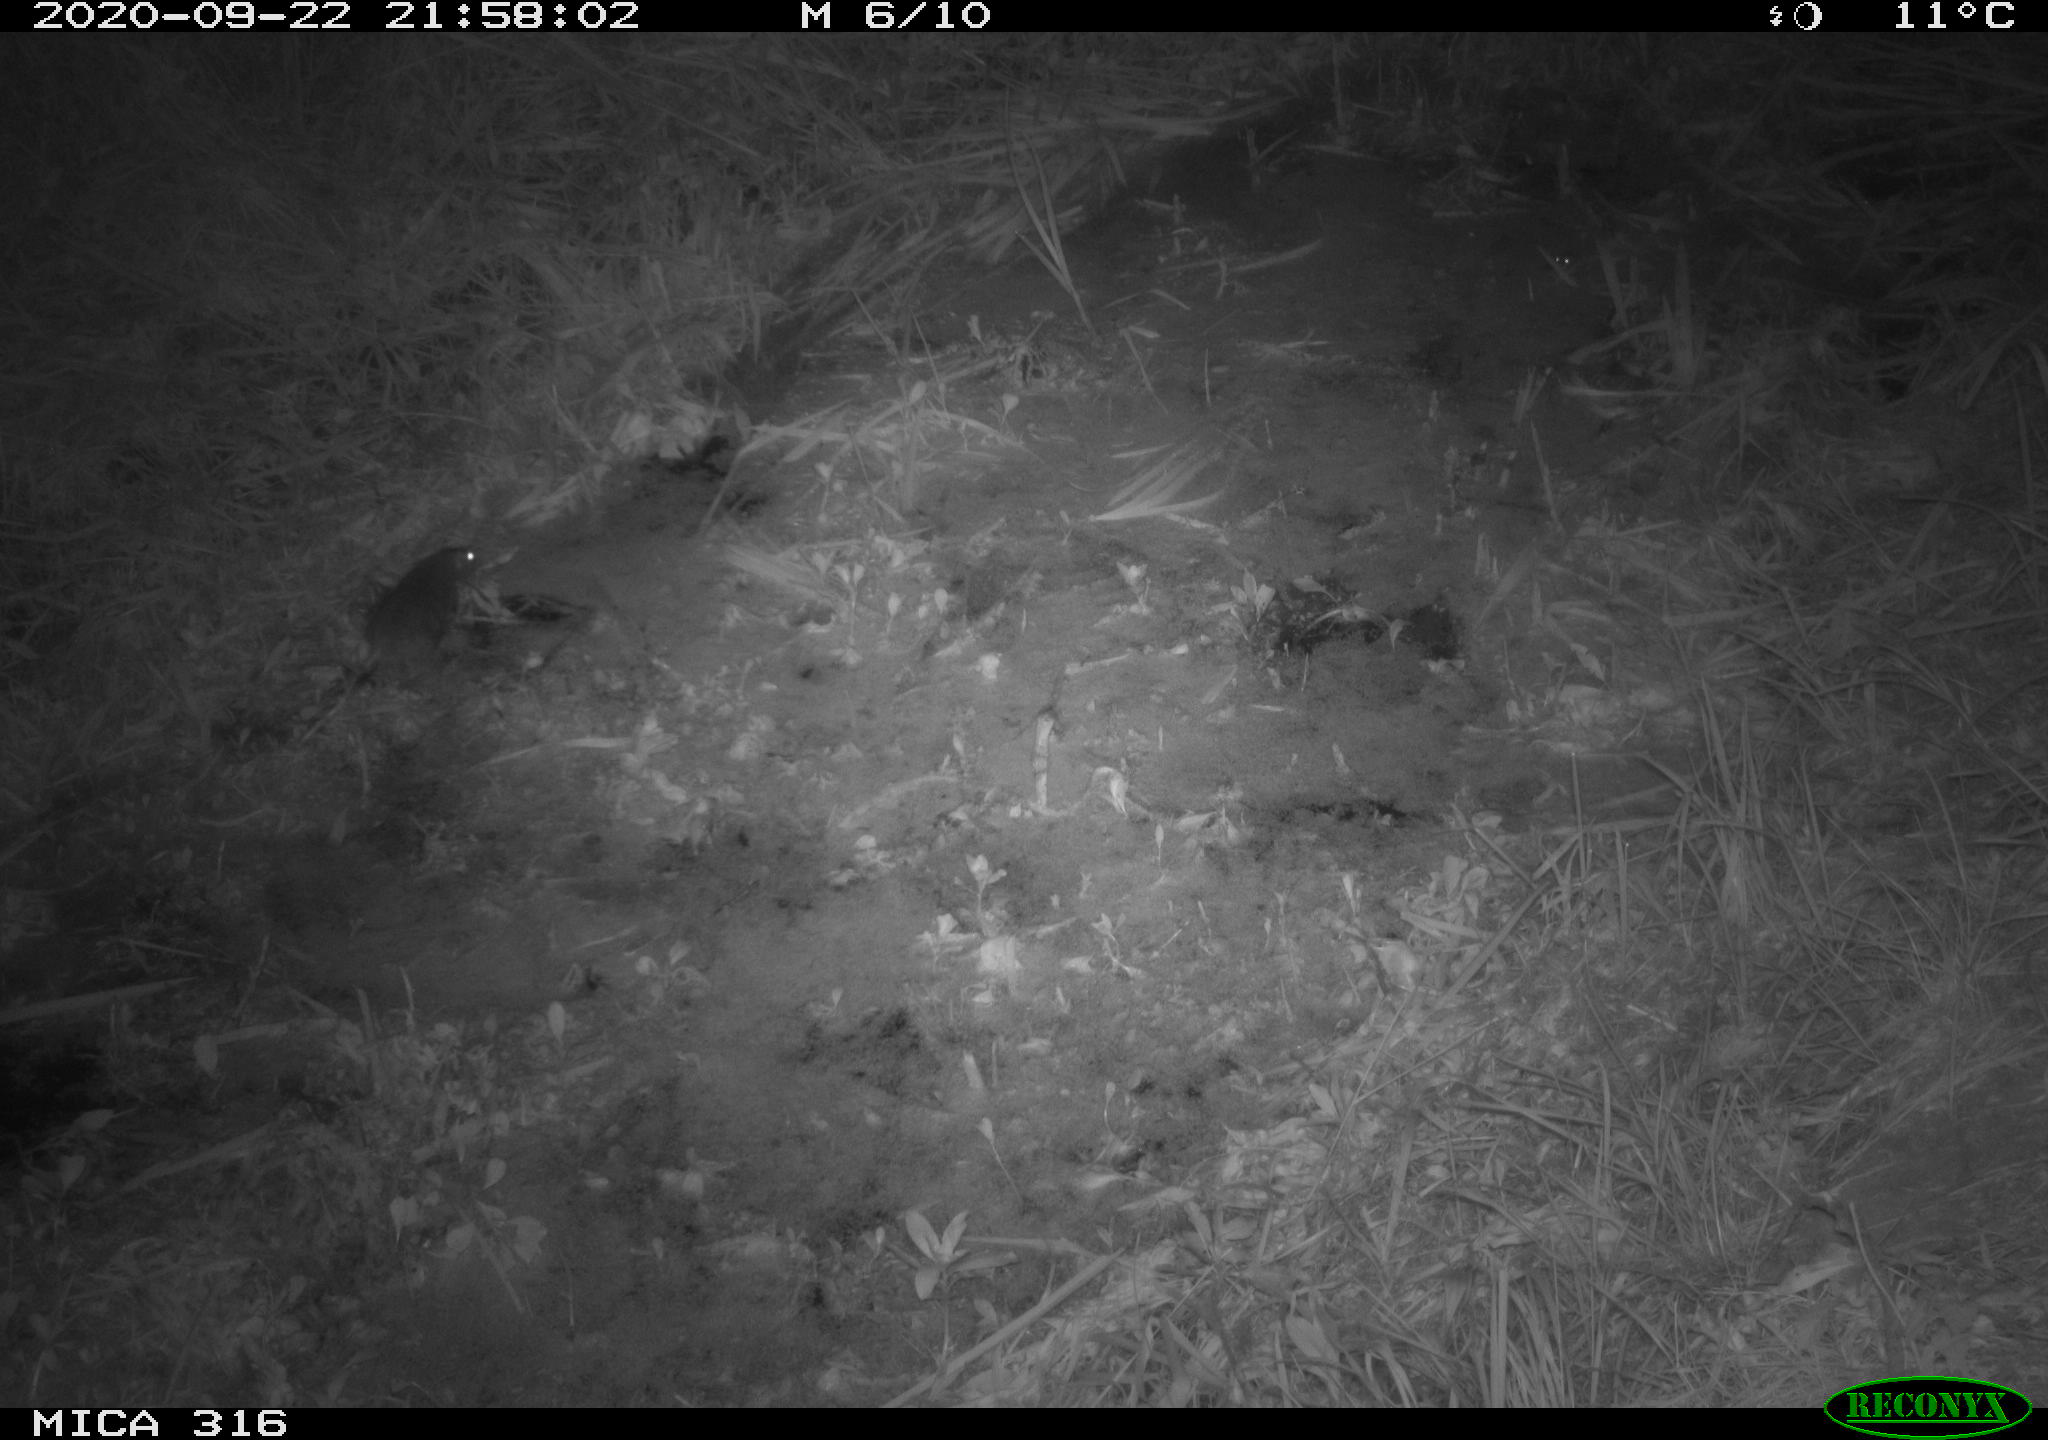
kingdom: Animalia
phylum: Chordata
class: Mammalia
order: Rodentia
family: Muridae
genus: Rattus
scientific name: Rattus norvegicus
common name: Brown rat
